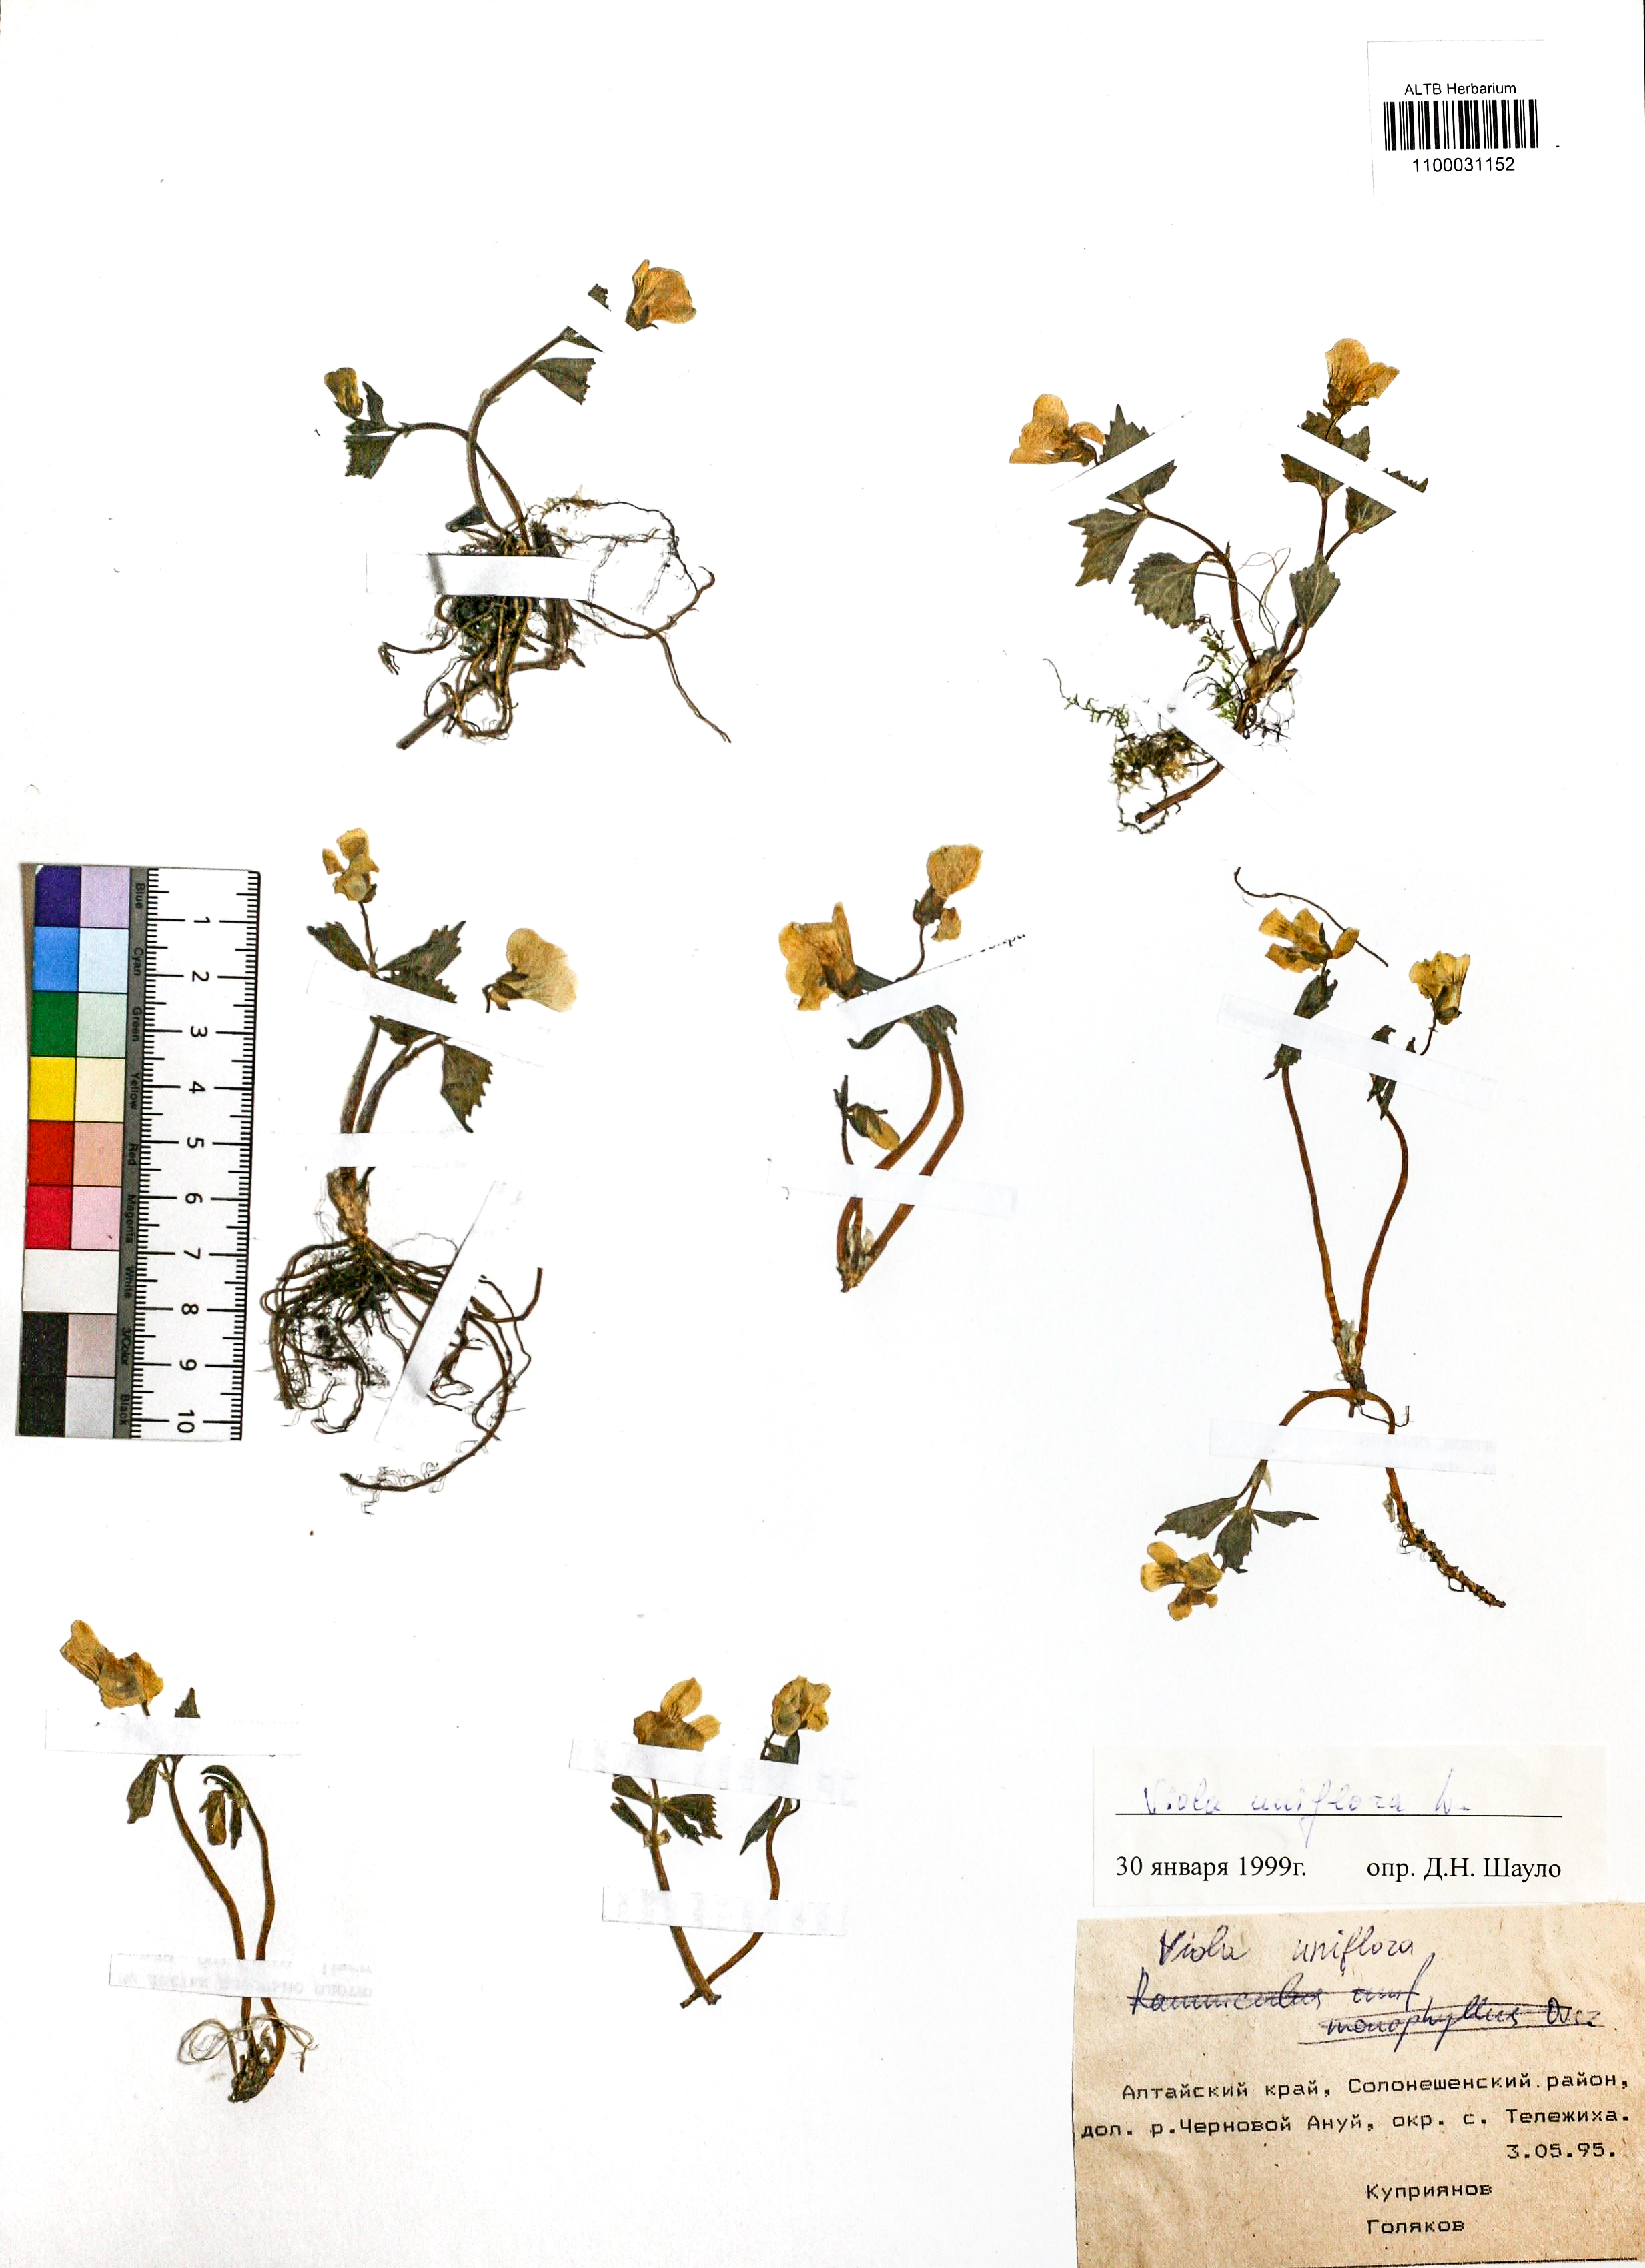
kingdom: Plantae
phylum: Tracheophyta
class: Magnoliopsida
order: Malpighiales
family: Violaceae
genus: Viola
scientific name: Viola uniflora
